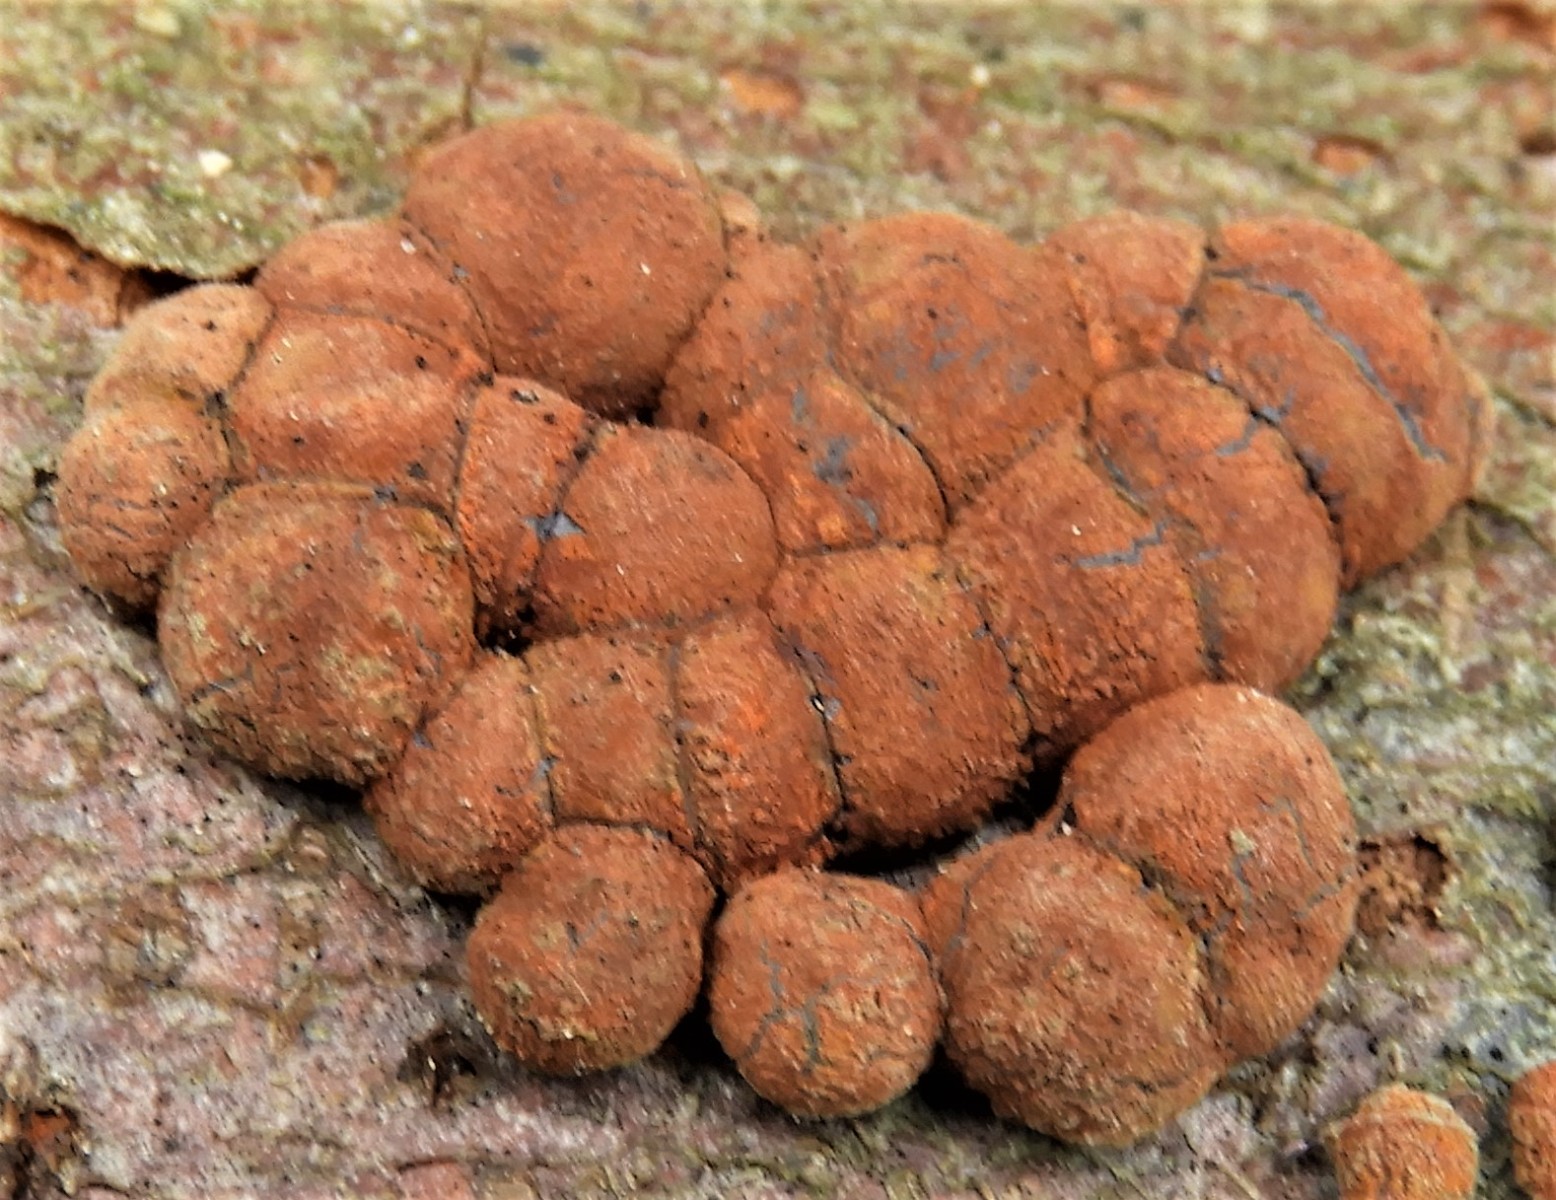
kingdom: Fungi
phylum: Ascomycota
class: Sordariomycetes
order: Xylariales
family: Hypoxylaceae
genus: Hypoxylon
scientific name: Hypoxylon fragiforme
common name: kuljordbær
